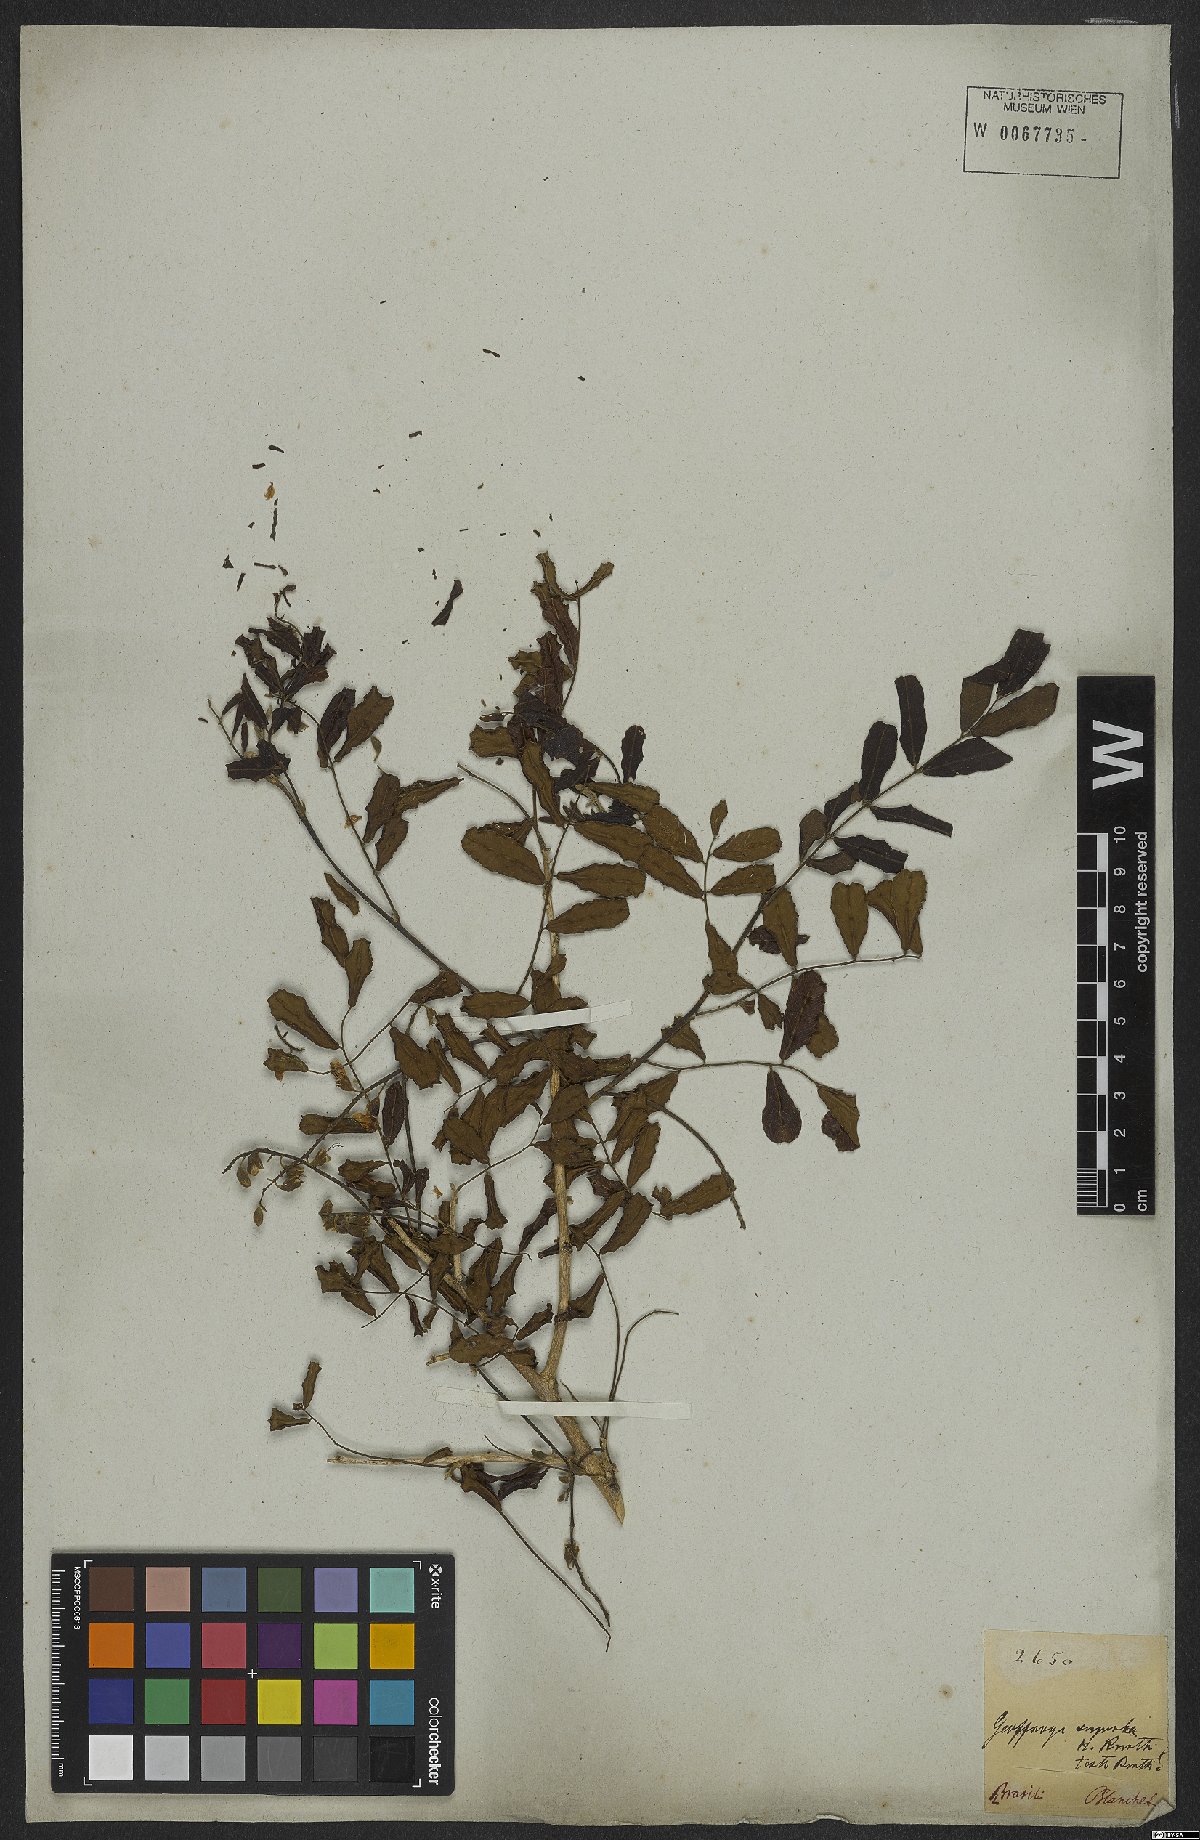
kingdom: Plantae
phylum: Tracheophyta
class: Magnoliopsida
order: Fabales
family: Fabaceae
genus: Geoffroea
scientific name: Geoffroea spinosa
